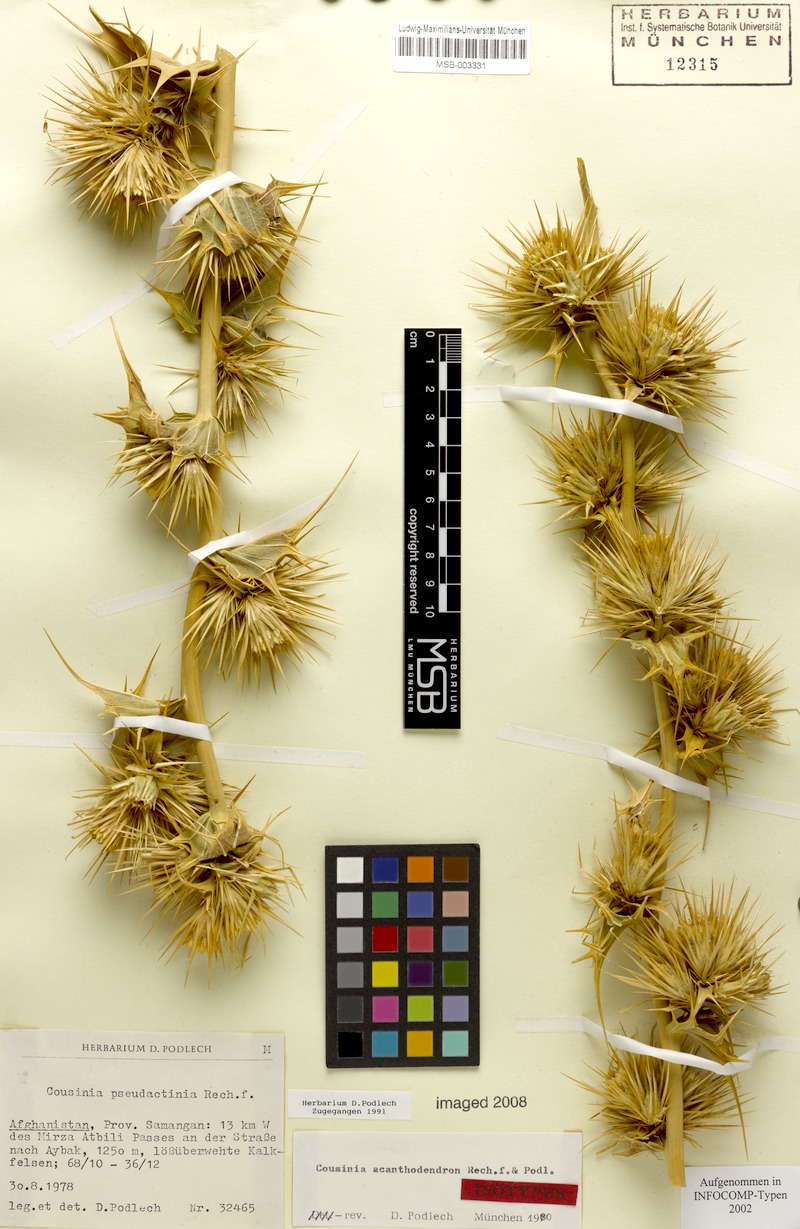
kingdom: Plantae
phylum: Tracheophyta
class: Magnoliopsida
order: Asterales
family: Asteraceae
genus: Cousinia
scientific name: Cousinia acanthodendron
